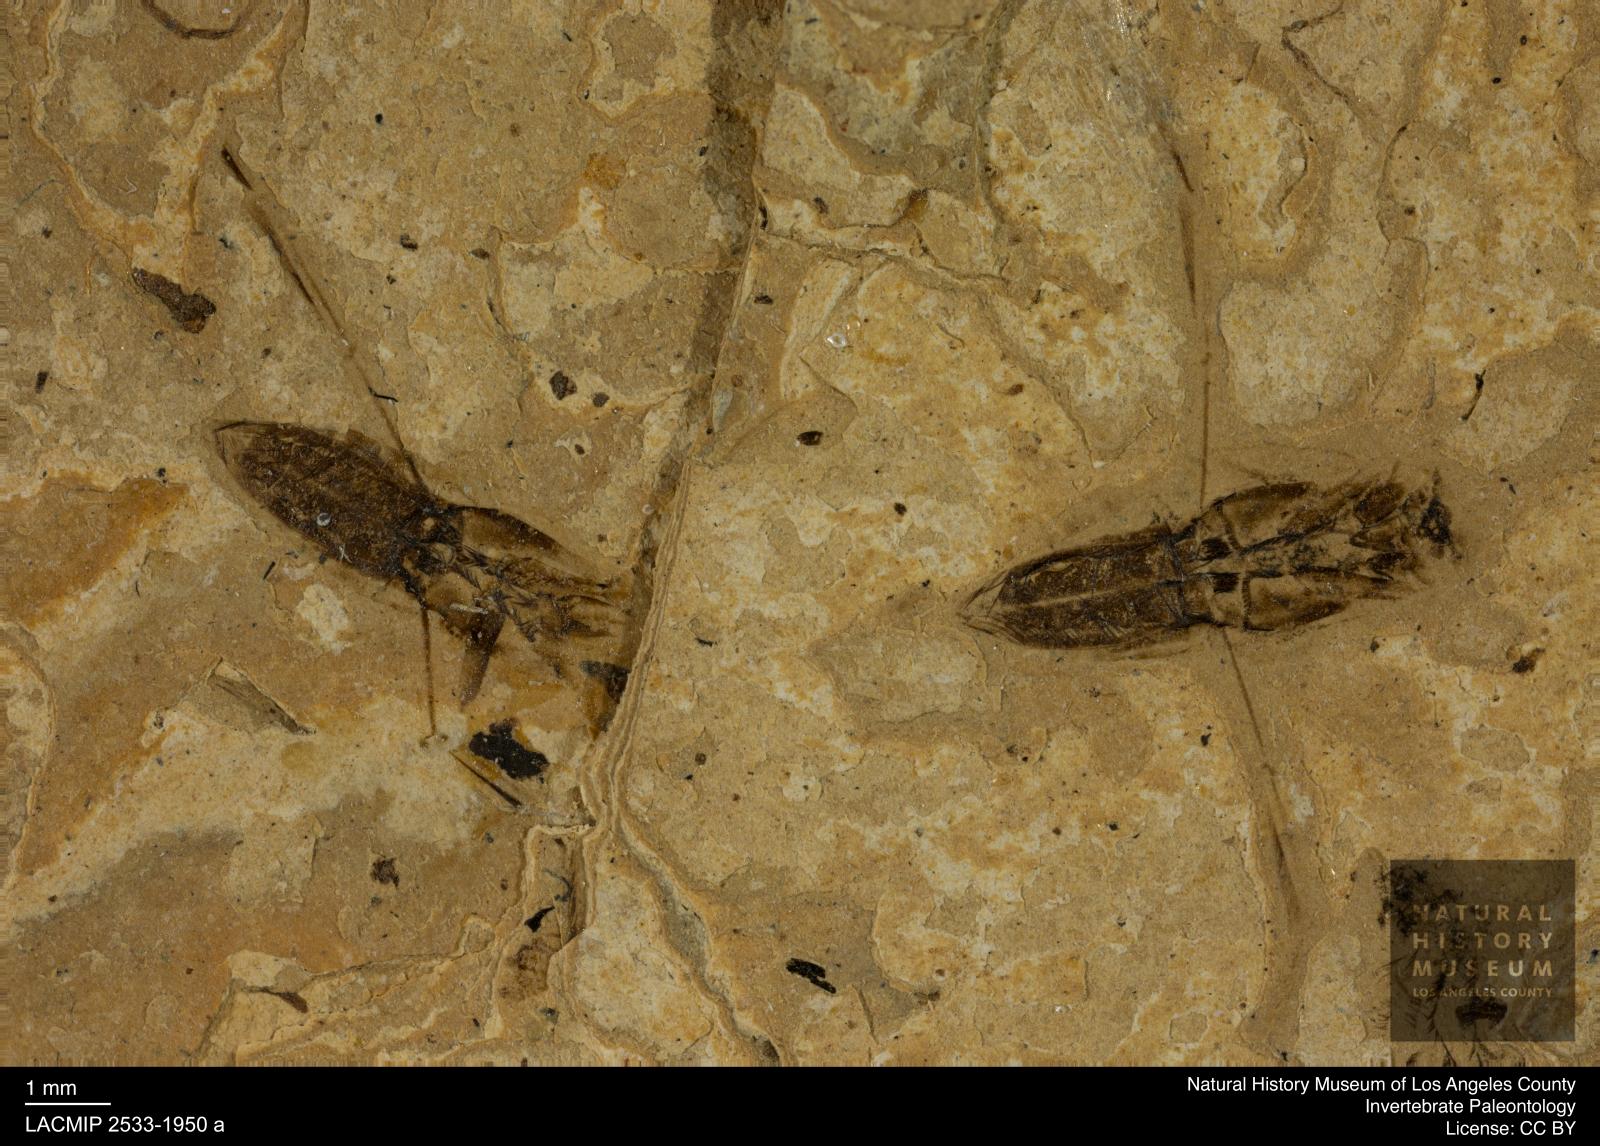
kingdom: Animalia
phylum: Arthropoda
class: Insecta
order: Hemiptera
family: Notonectidae
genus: Anisops
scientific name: Anisops Notonecta deichmuelleri
